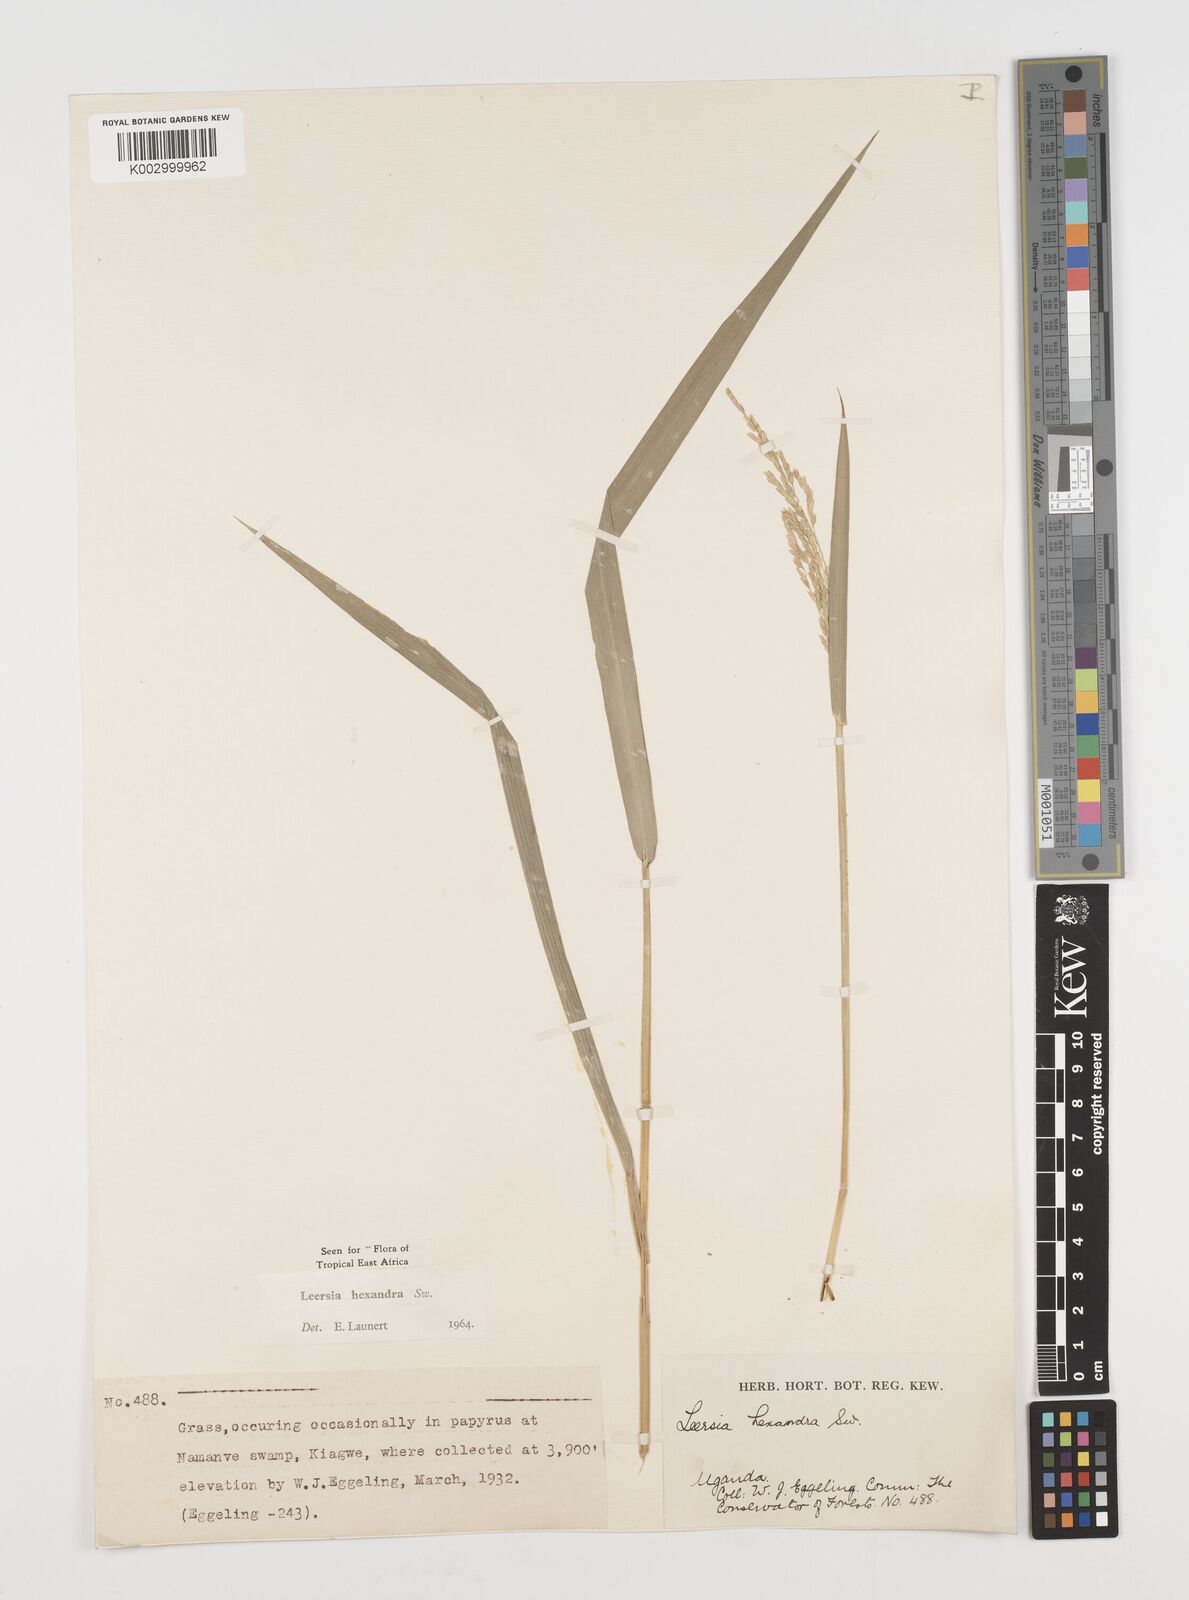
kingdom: Plantae
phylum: Tracheophyta
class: Liliopsida
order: Poales
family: Poaceae
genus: Leersia
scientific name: Leersia hexandra
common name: Southern cut grass
